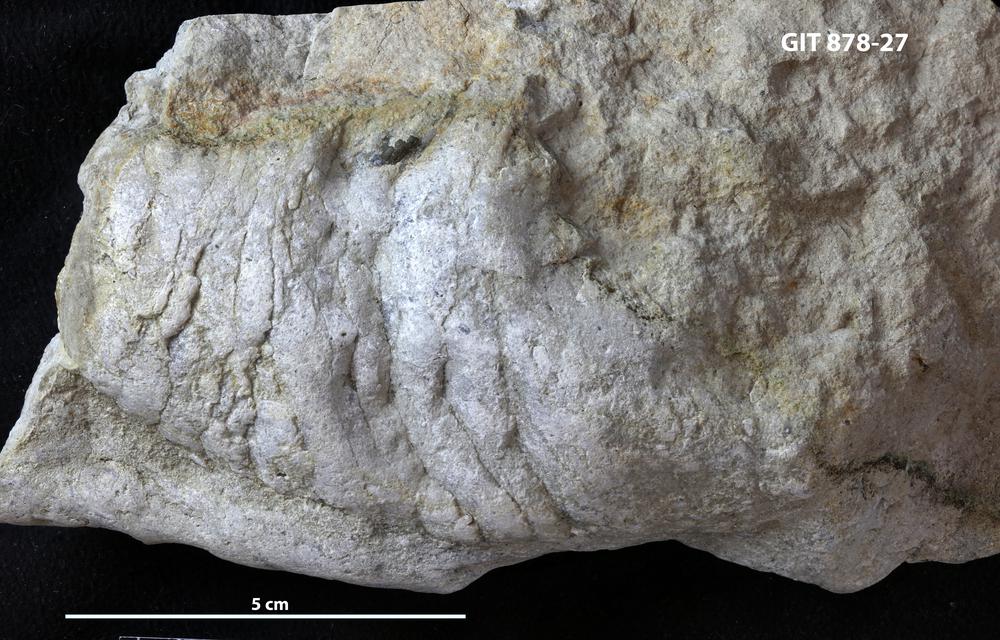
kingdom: Animalia
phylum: Mollusca
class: Cephalopoda
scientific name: Cephalopoda
